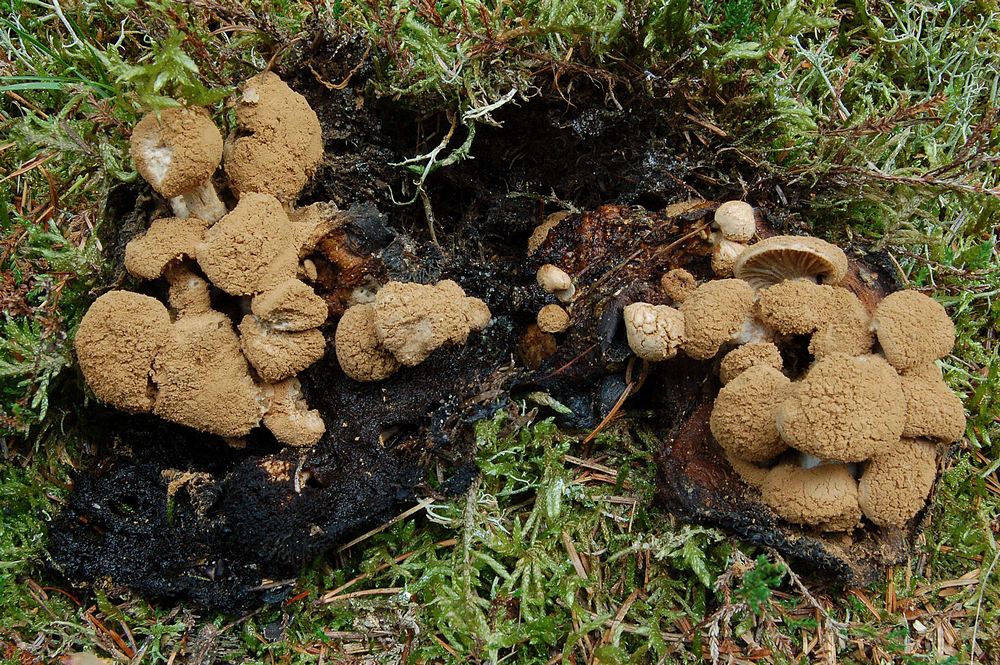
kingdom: Fungi
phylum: Basidiomycota
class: Agaricomycetes
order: Agaricales
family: Lyophyllaceae
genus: Asterophora
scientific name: Asterophora lycoperdoides
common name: brunpudret snyltehat
